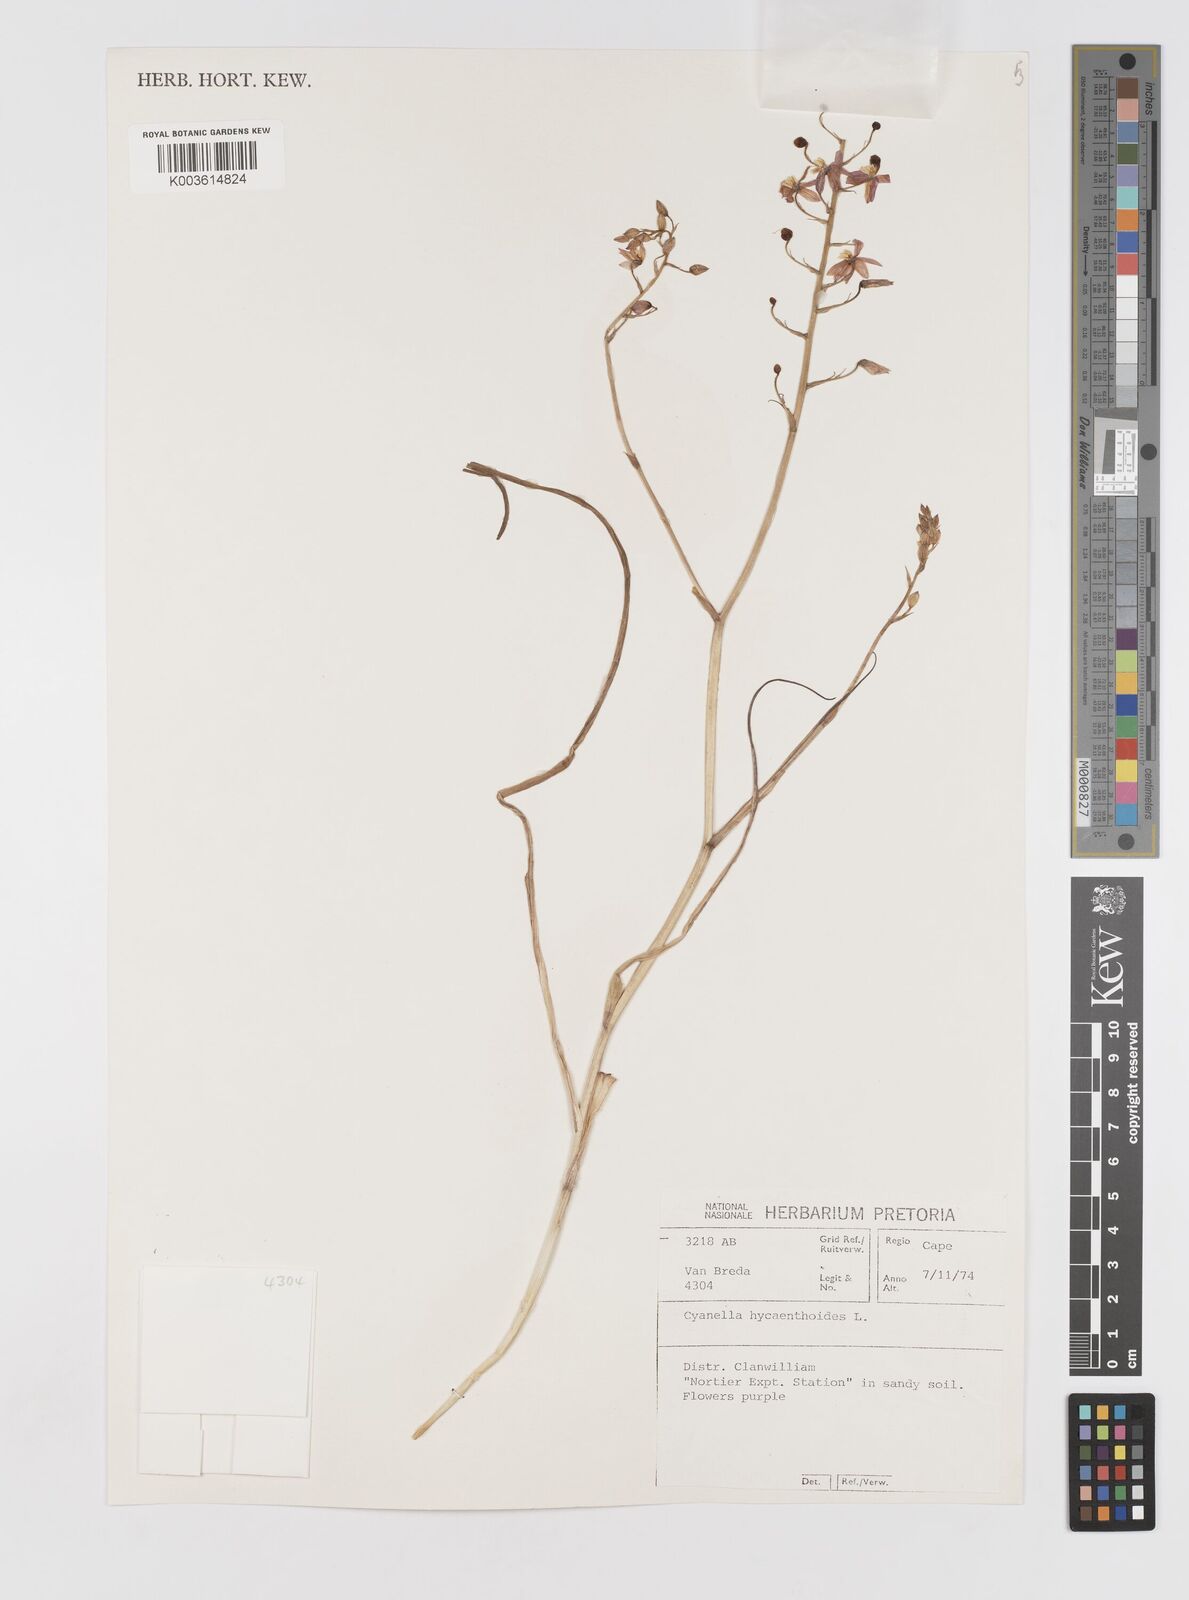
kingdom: Plantae
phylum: Tracheophyta
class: Liliopsida
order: Asparagales
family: Tecophilaeaceae
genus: Cyanella
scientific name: Cyanella hyacinthoides
